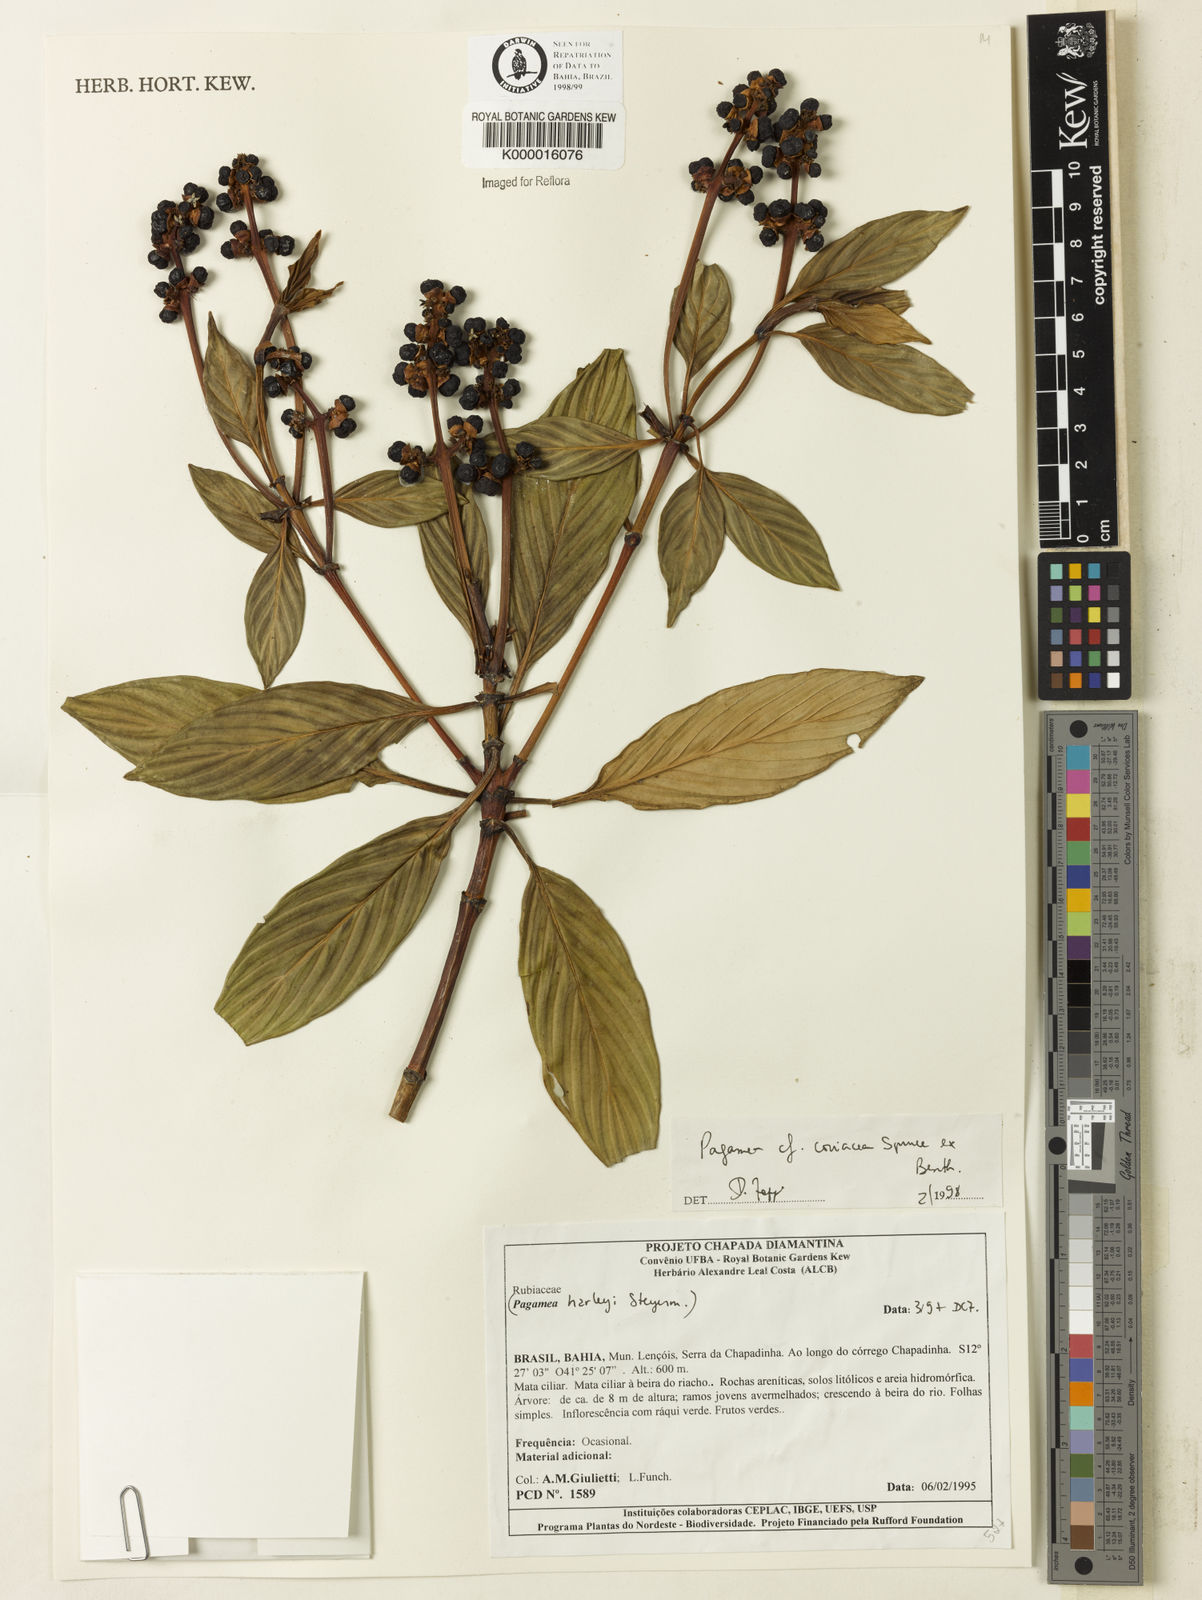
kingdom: Plantae
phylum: Tracheophyta
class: Magnoliopsida
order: Gentianales
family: Rubiaceae
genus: Pagamea
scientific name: Pagamea coriacea
